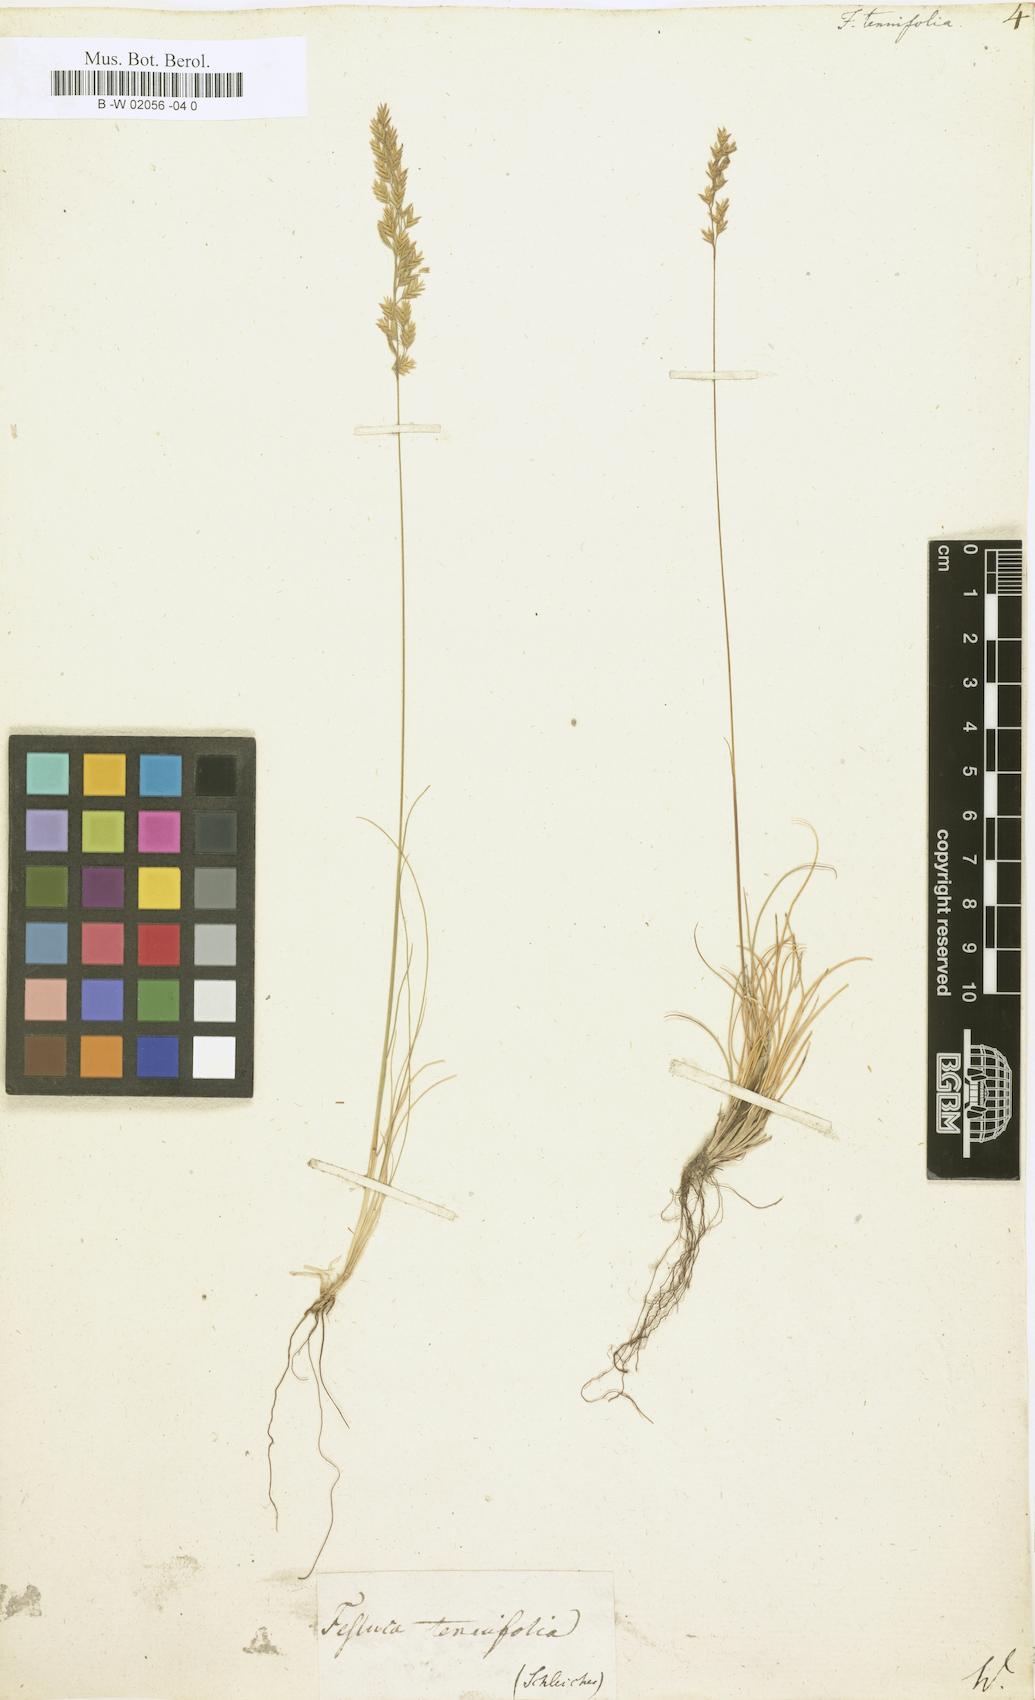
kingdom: Plantae
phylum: Tracheophyta
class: Liliopsida
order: Poales
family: Poaceae
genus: Festuca
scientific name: Festuca
